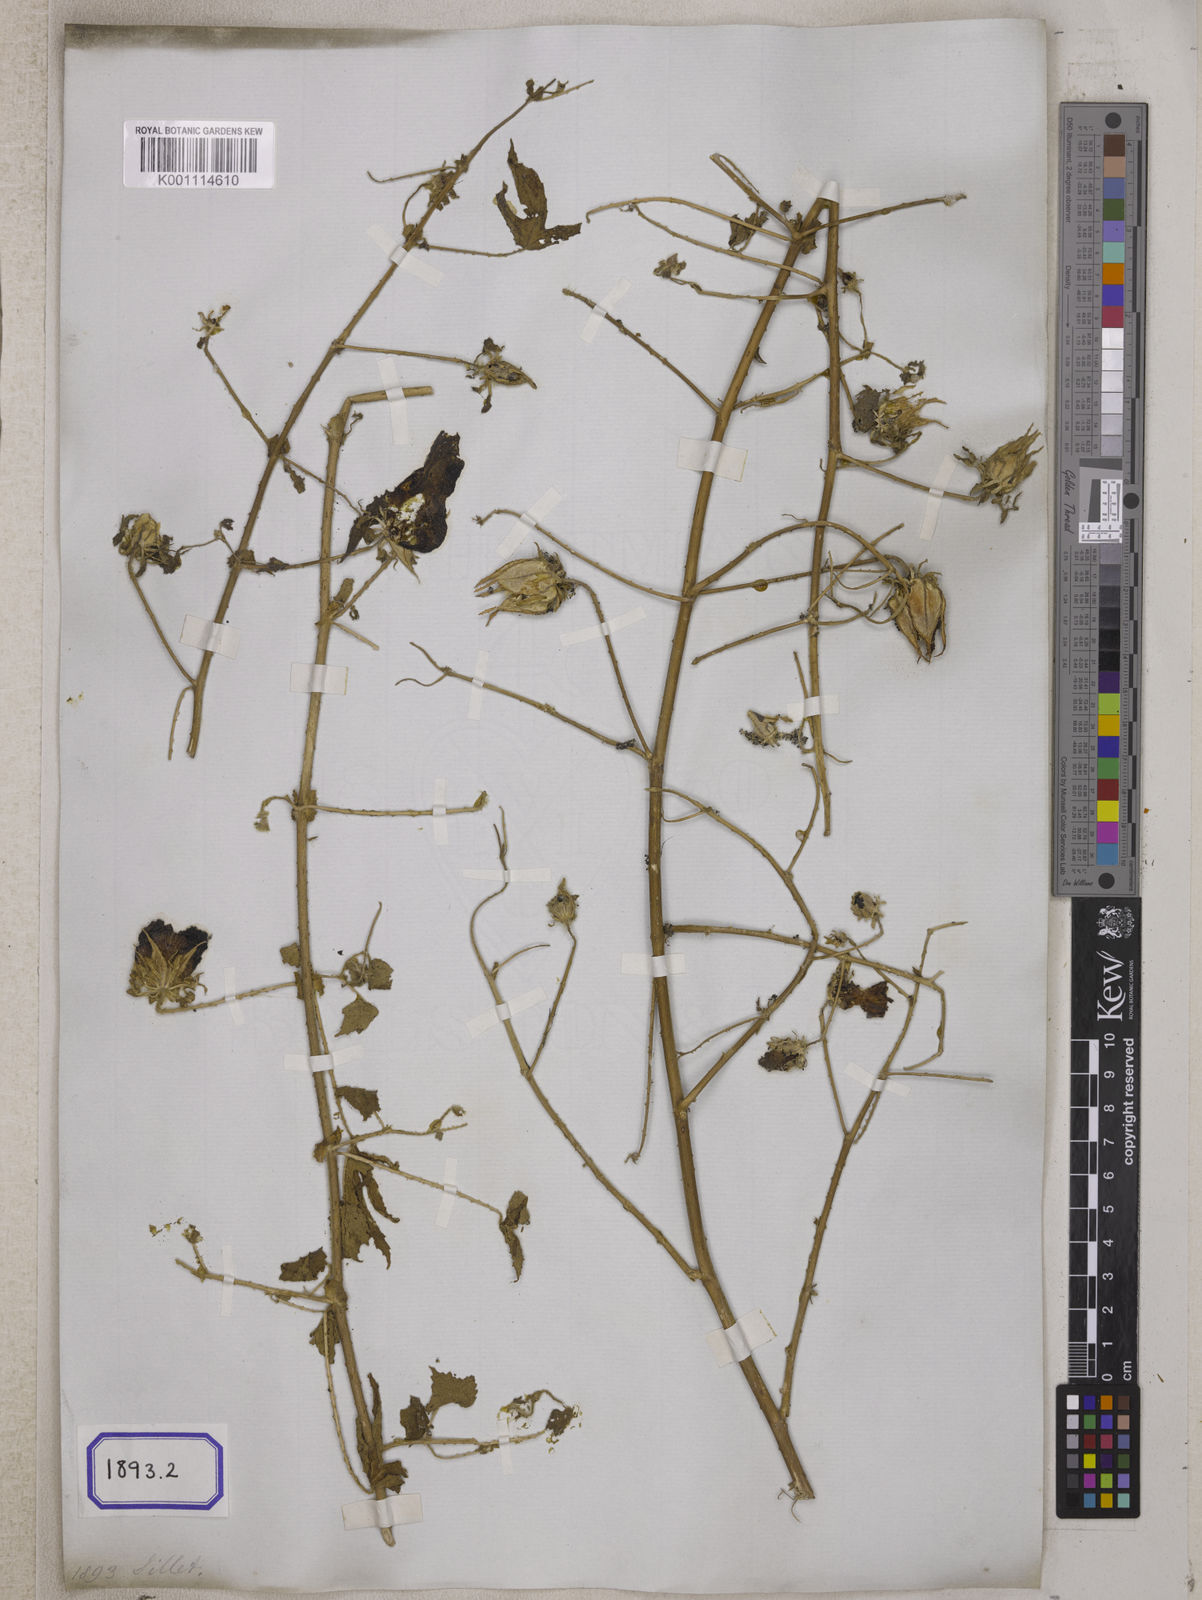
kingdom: Plantae
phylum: Tracheophyta
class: Magnoliopsida
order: Malvales
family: Malvaceae
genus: Hibiscus
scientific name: Hibiscus surattensis
